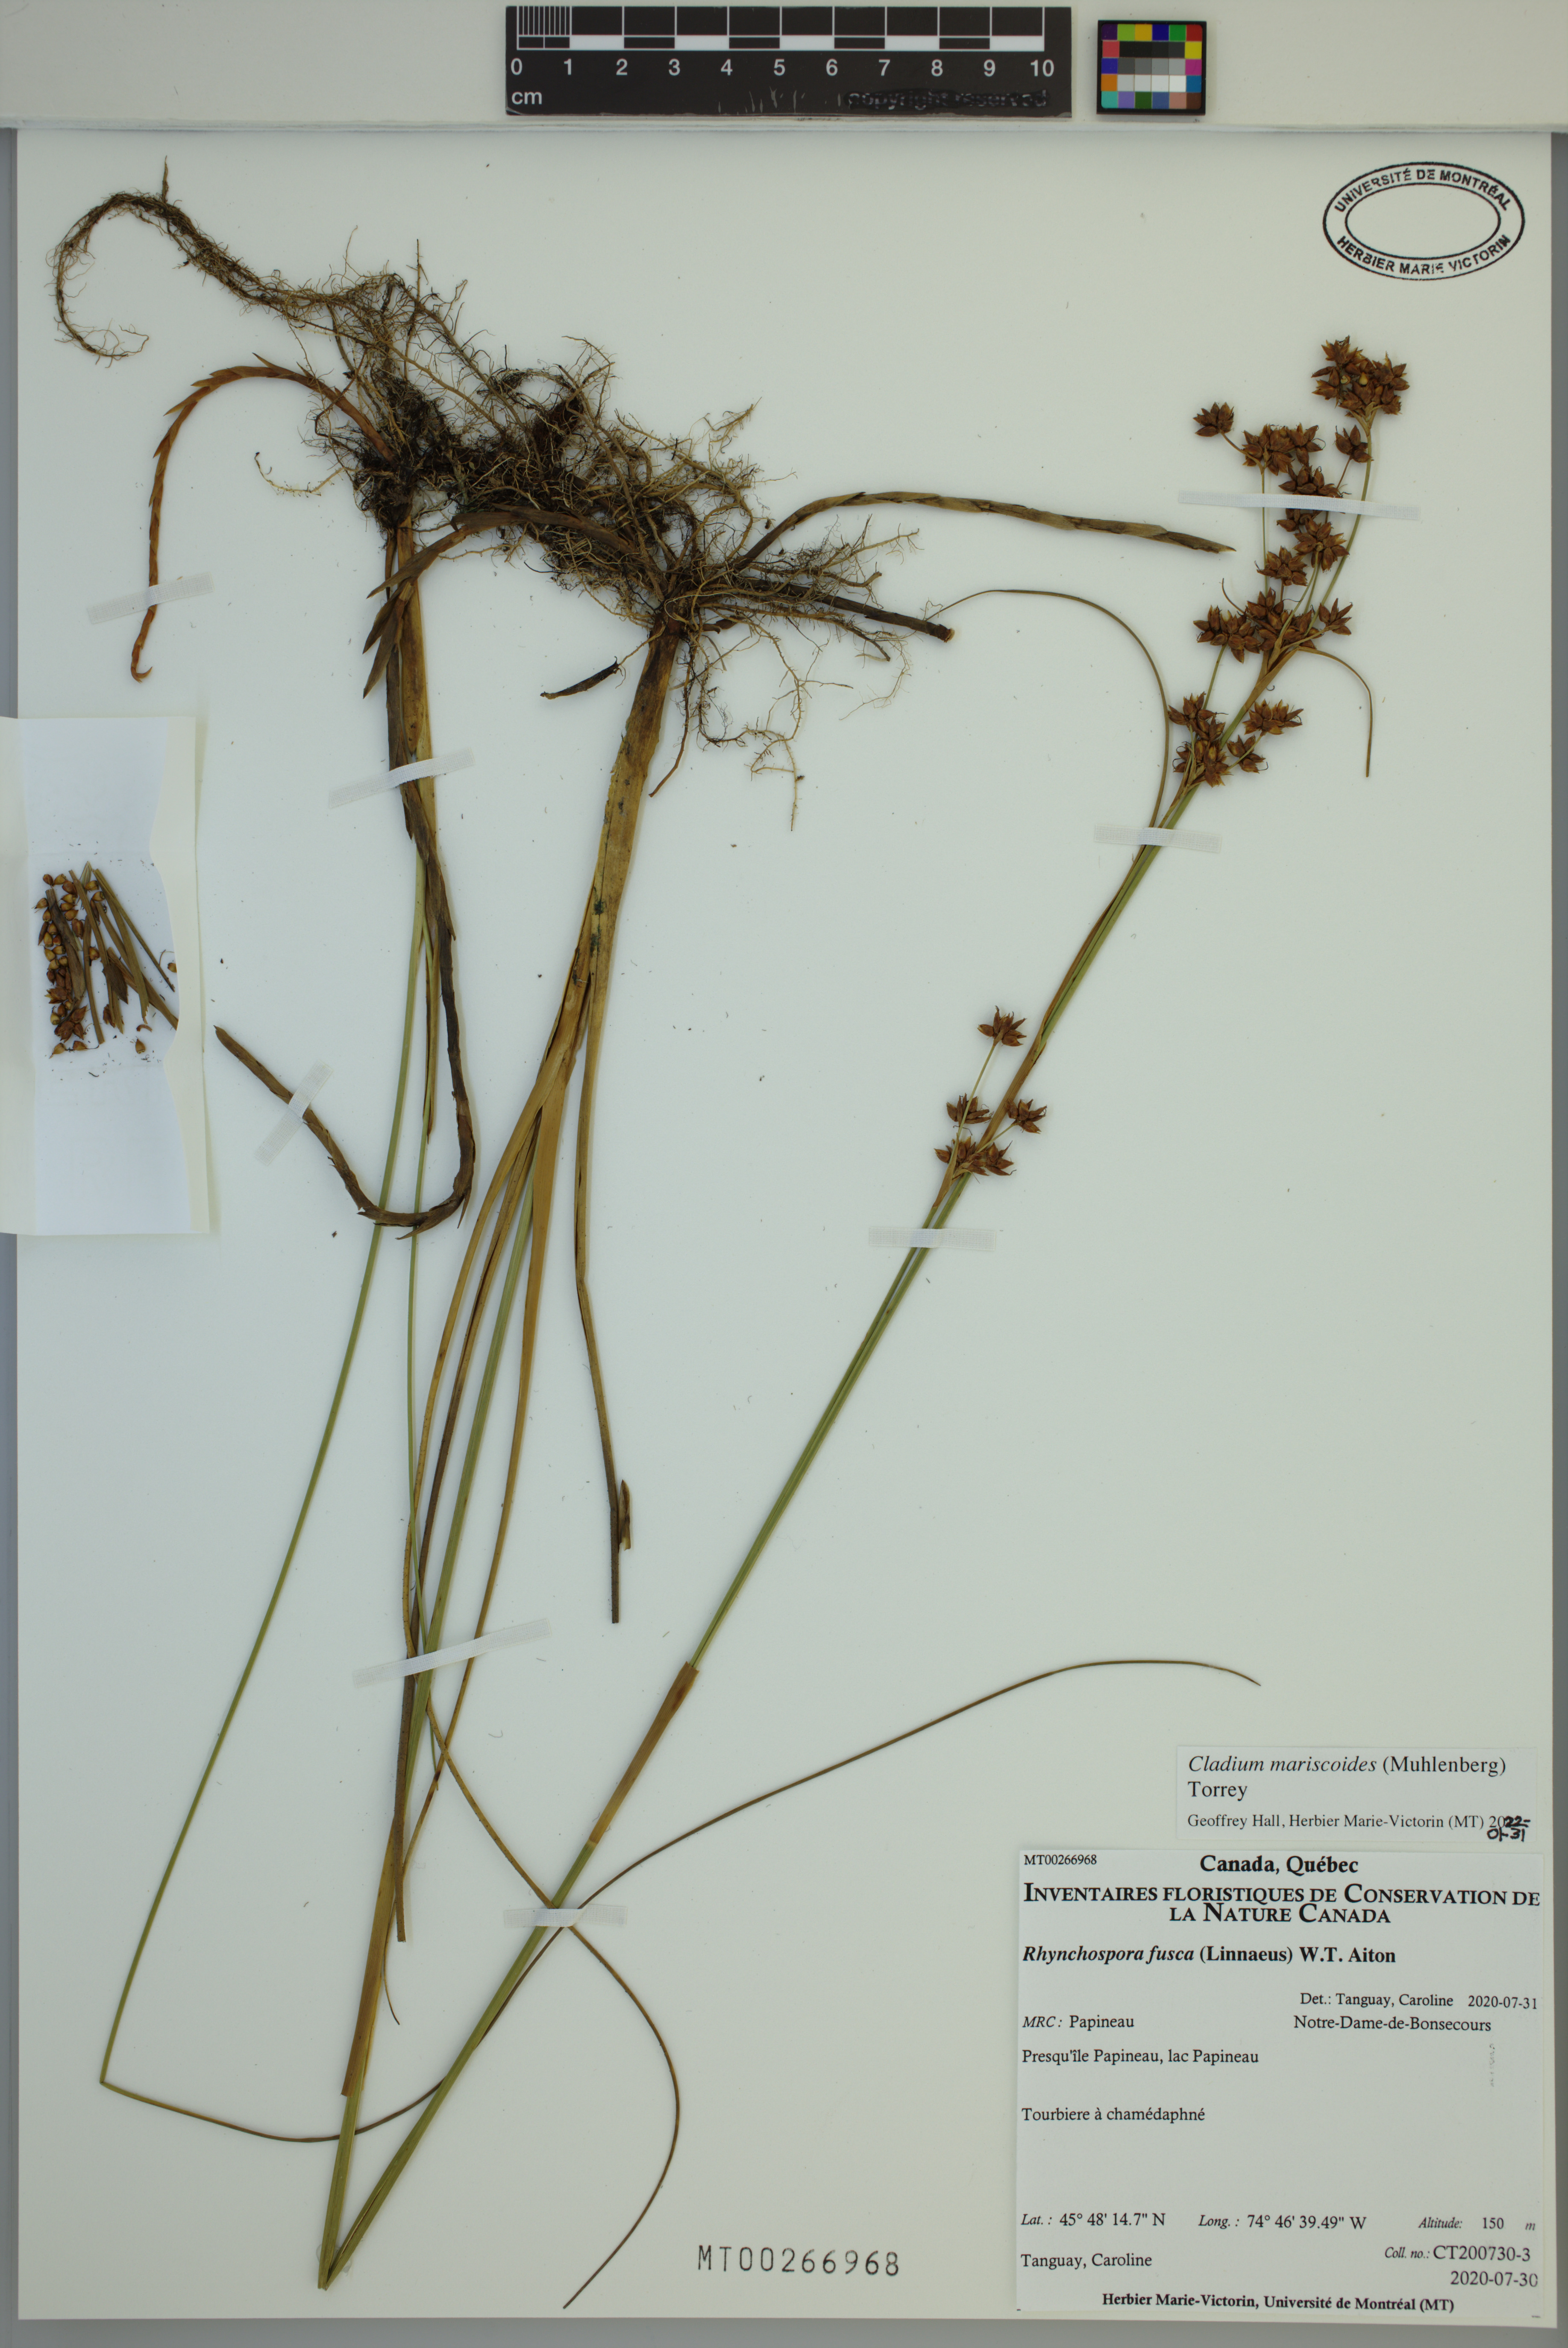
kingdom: Plantae
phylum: Tracheophyta
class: Liliopsida
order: Poales
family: Cyperaceae
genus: Cladium
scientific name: Cladium mariscoides
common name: Smooth sawgrass
